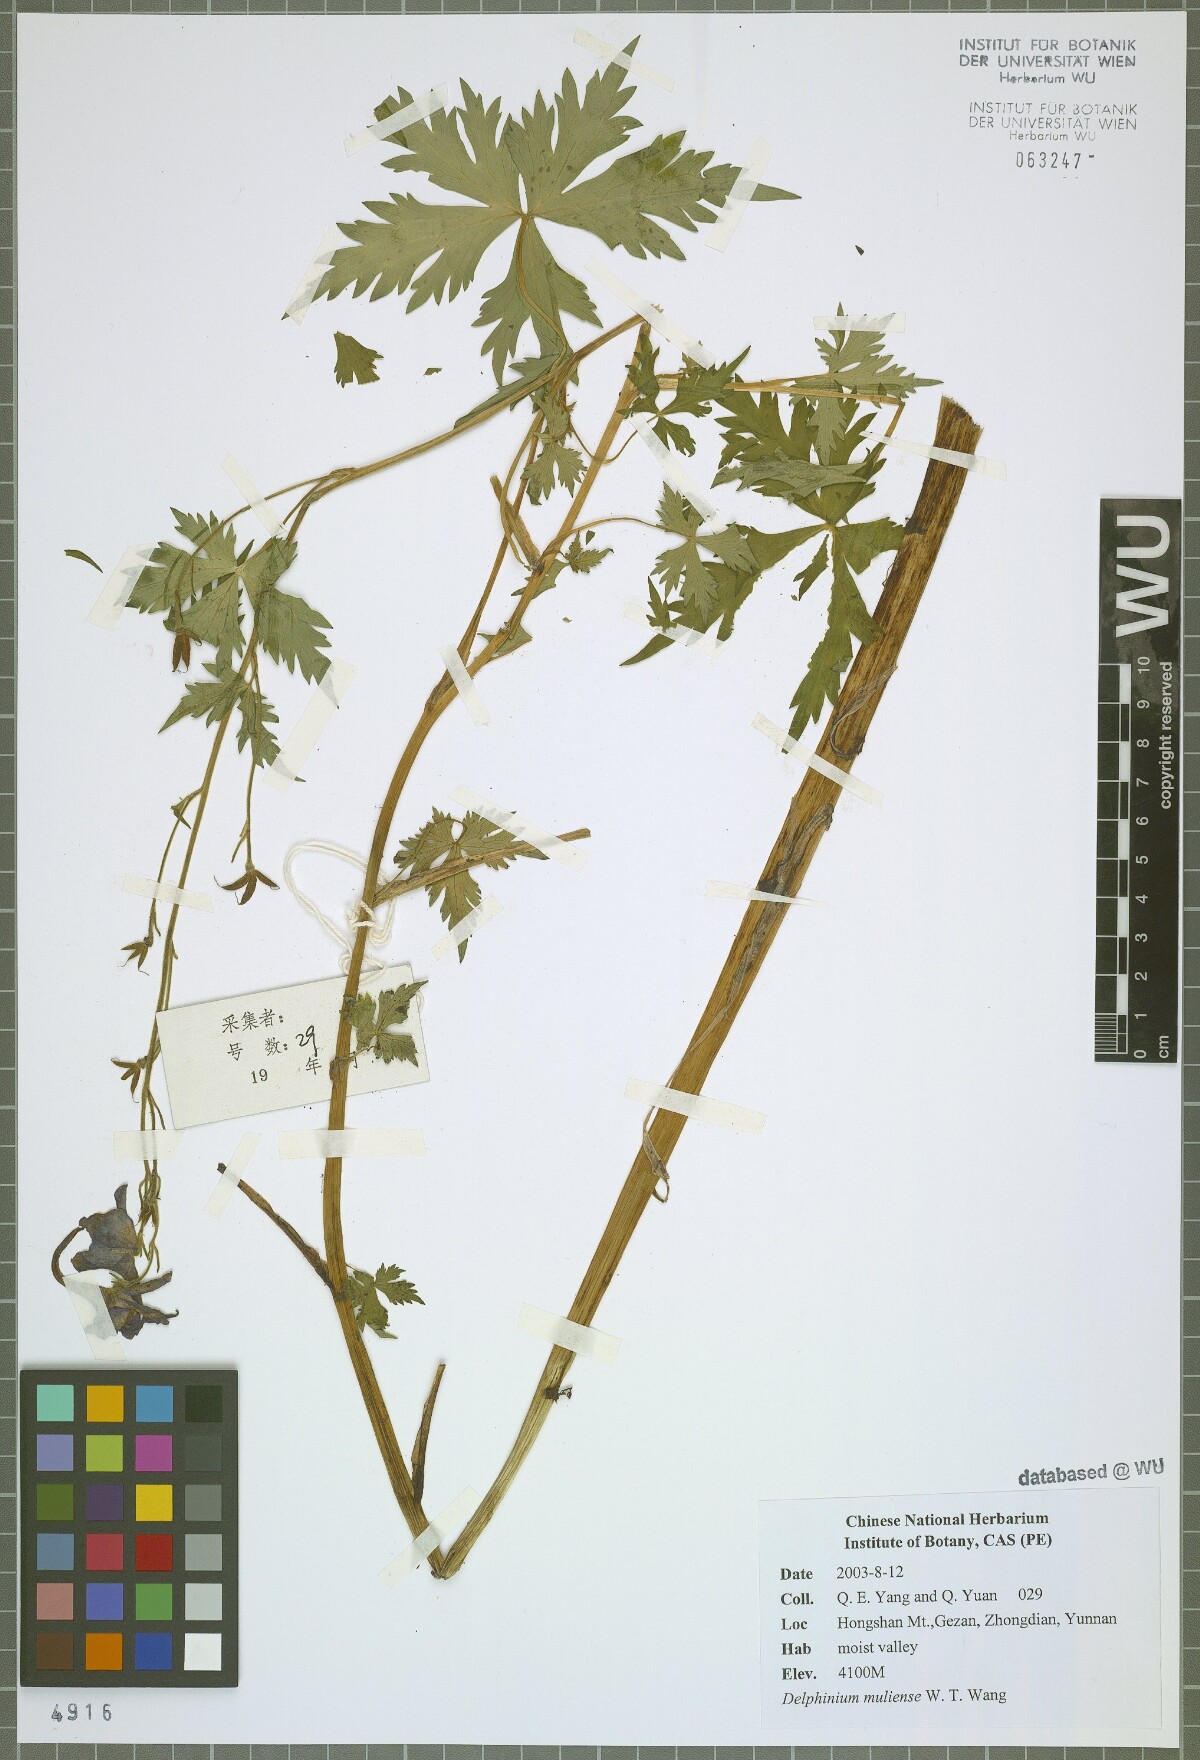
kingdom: Plantae
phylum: Tracheophyta
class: Magnoliopsida
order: Ranunculales
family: Ranunculaceae
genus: Delphinium
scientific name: Delphinium muliense
